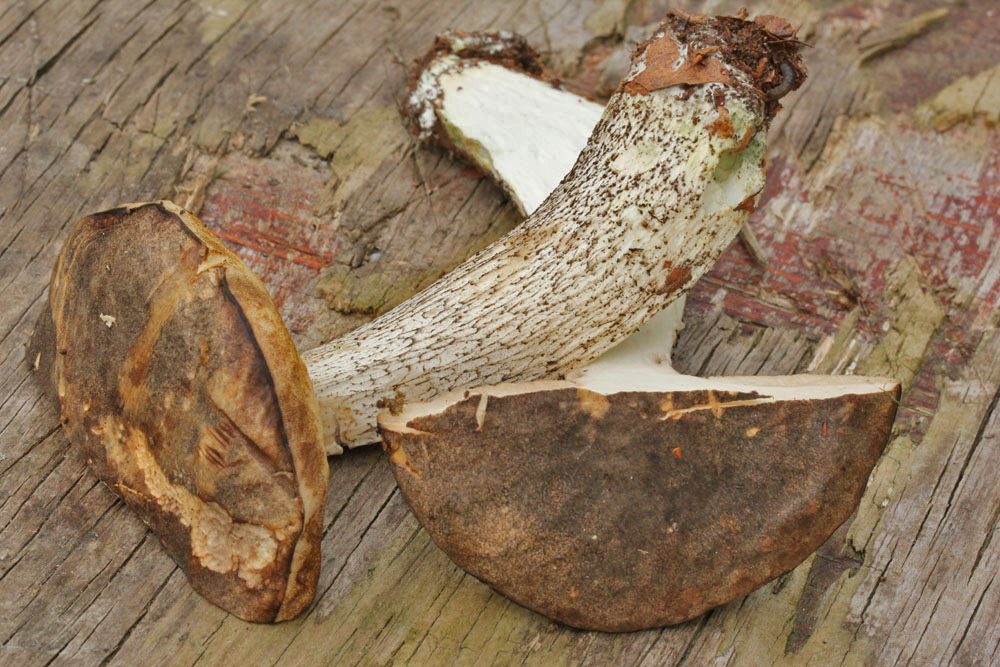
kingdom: Fungi
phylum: Basidiomycota
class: Agaricomycetes
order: Boletales
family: Boletaceae
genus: Leccinum
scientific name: Leccinum variicolor
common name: flammet skælrørhat
